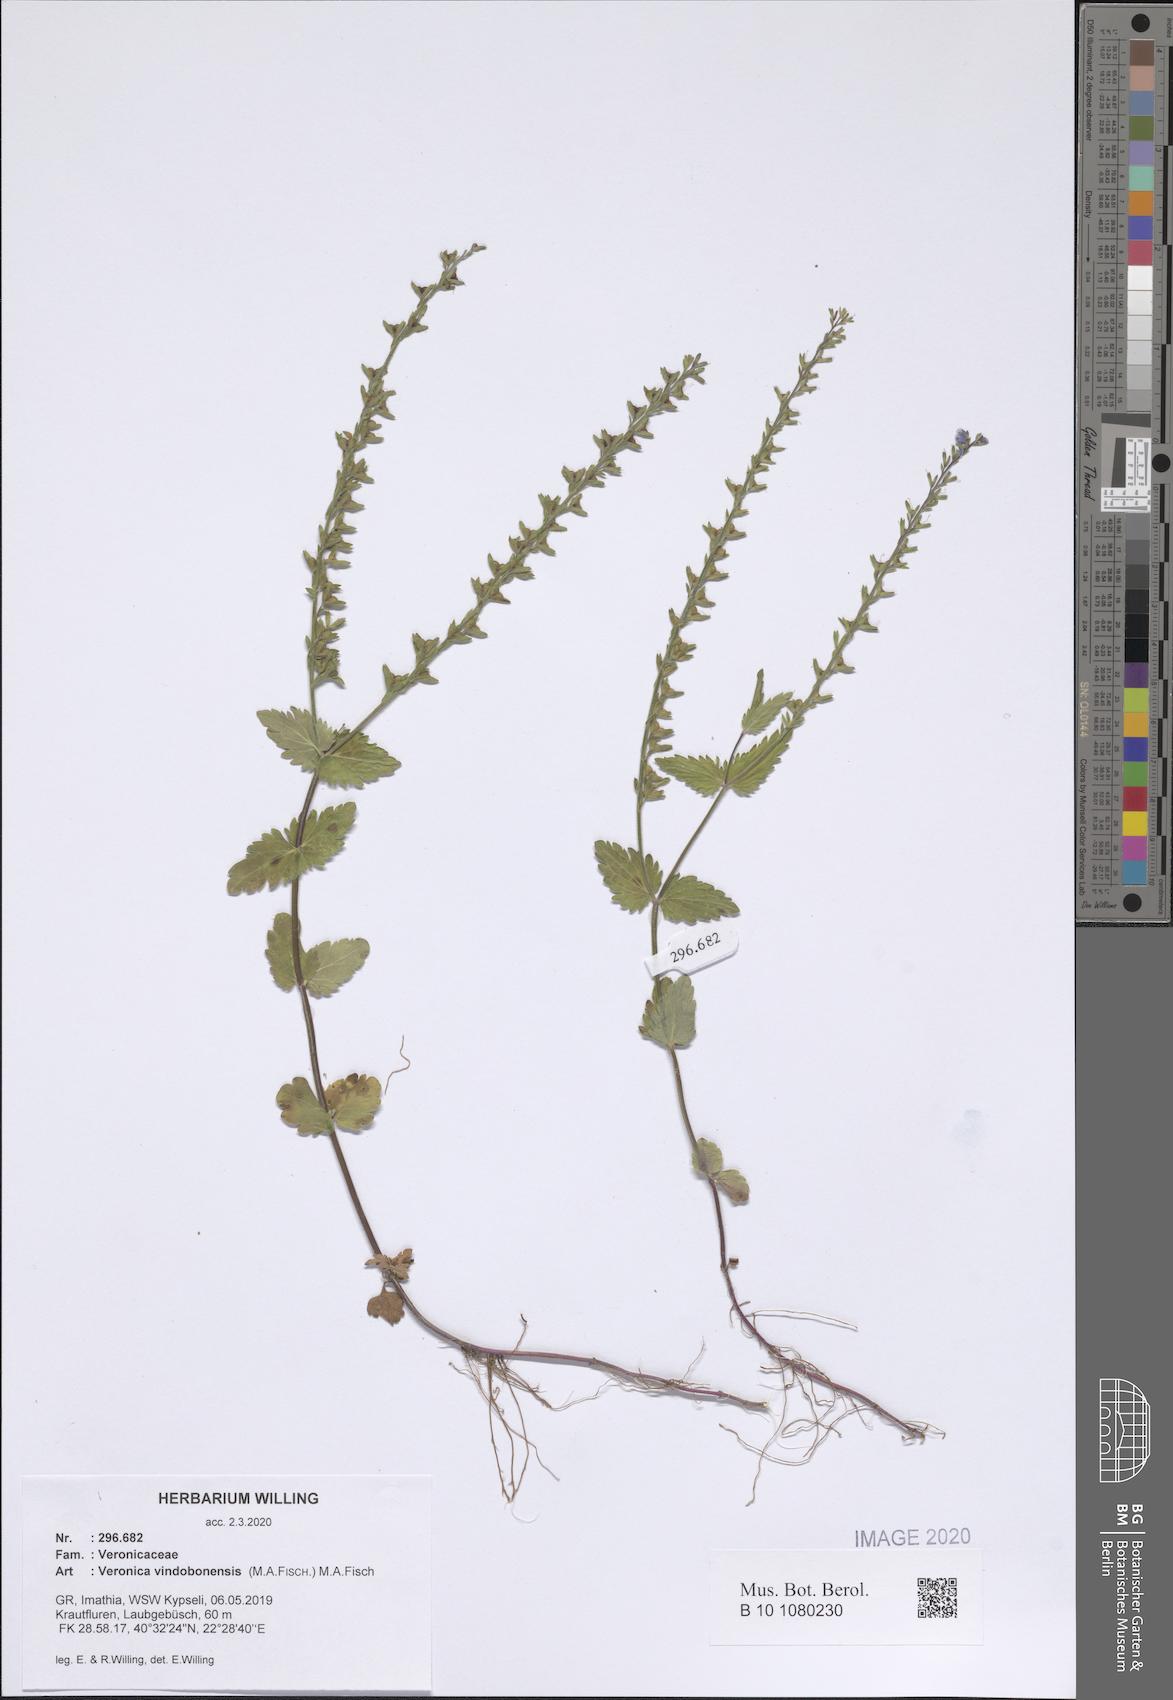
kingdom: Plantae
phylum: Tracheophyta
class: Magnoliopsida
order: Lamiales
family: Plantaginaceae
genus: Veronica
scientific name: Veronica vindobonensis
